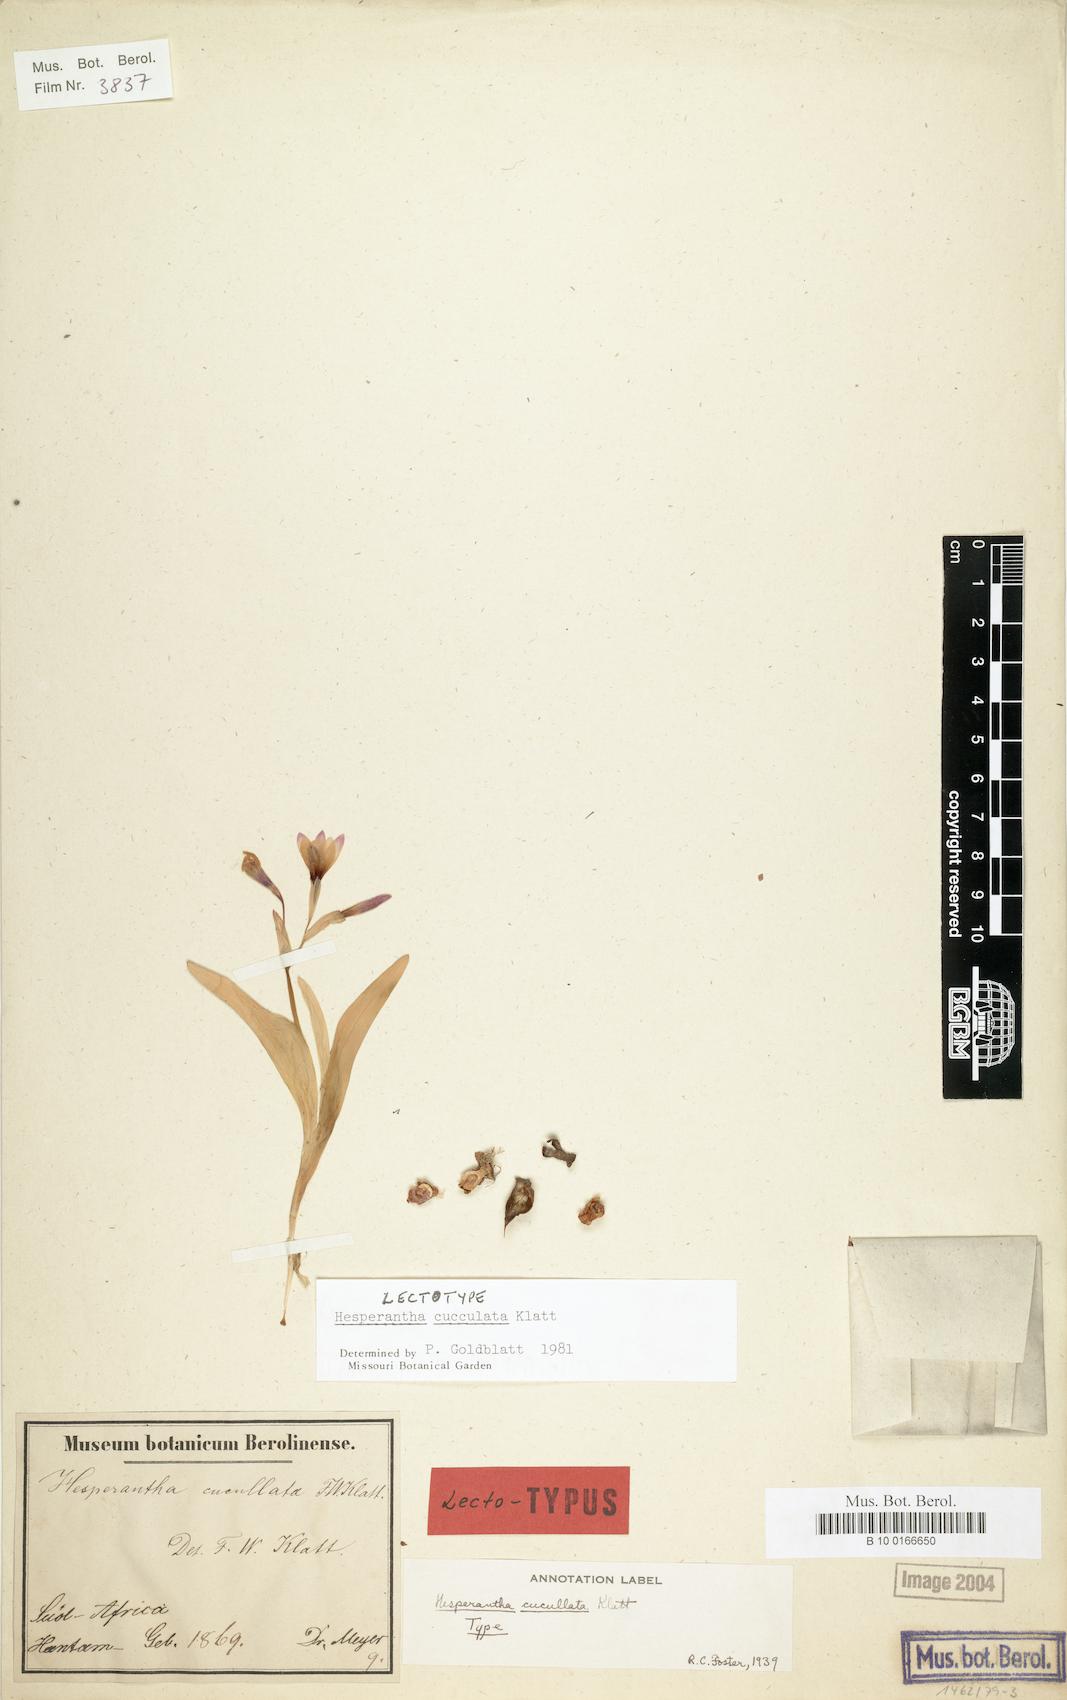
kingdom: Plantae
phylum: Tracheophyta
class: Liliopsida
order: Asparagales
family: Iridaceae
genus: Hesperantha
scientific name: Hesperantha cucullata
